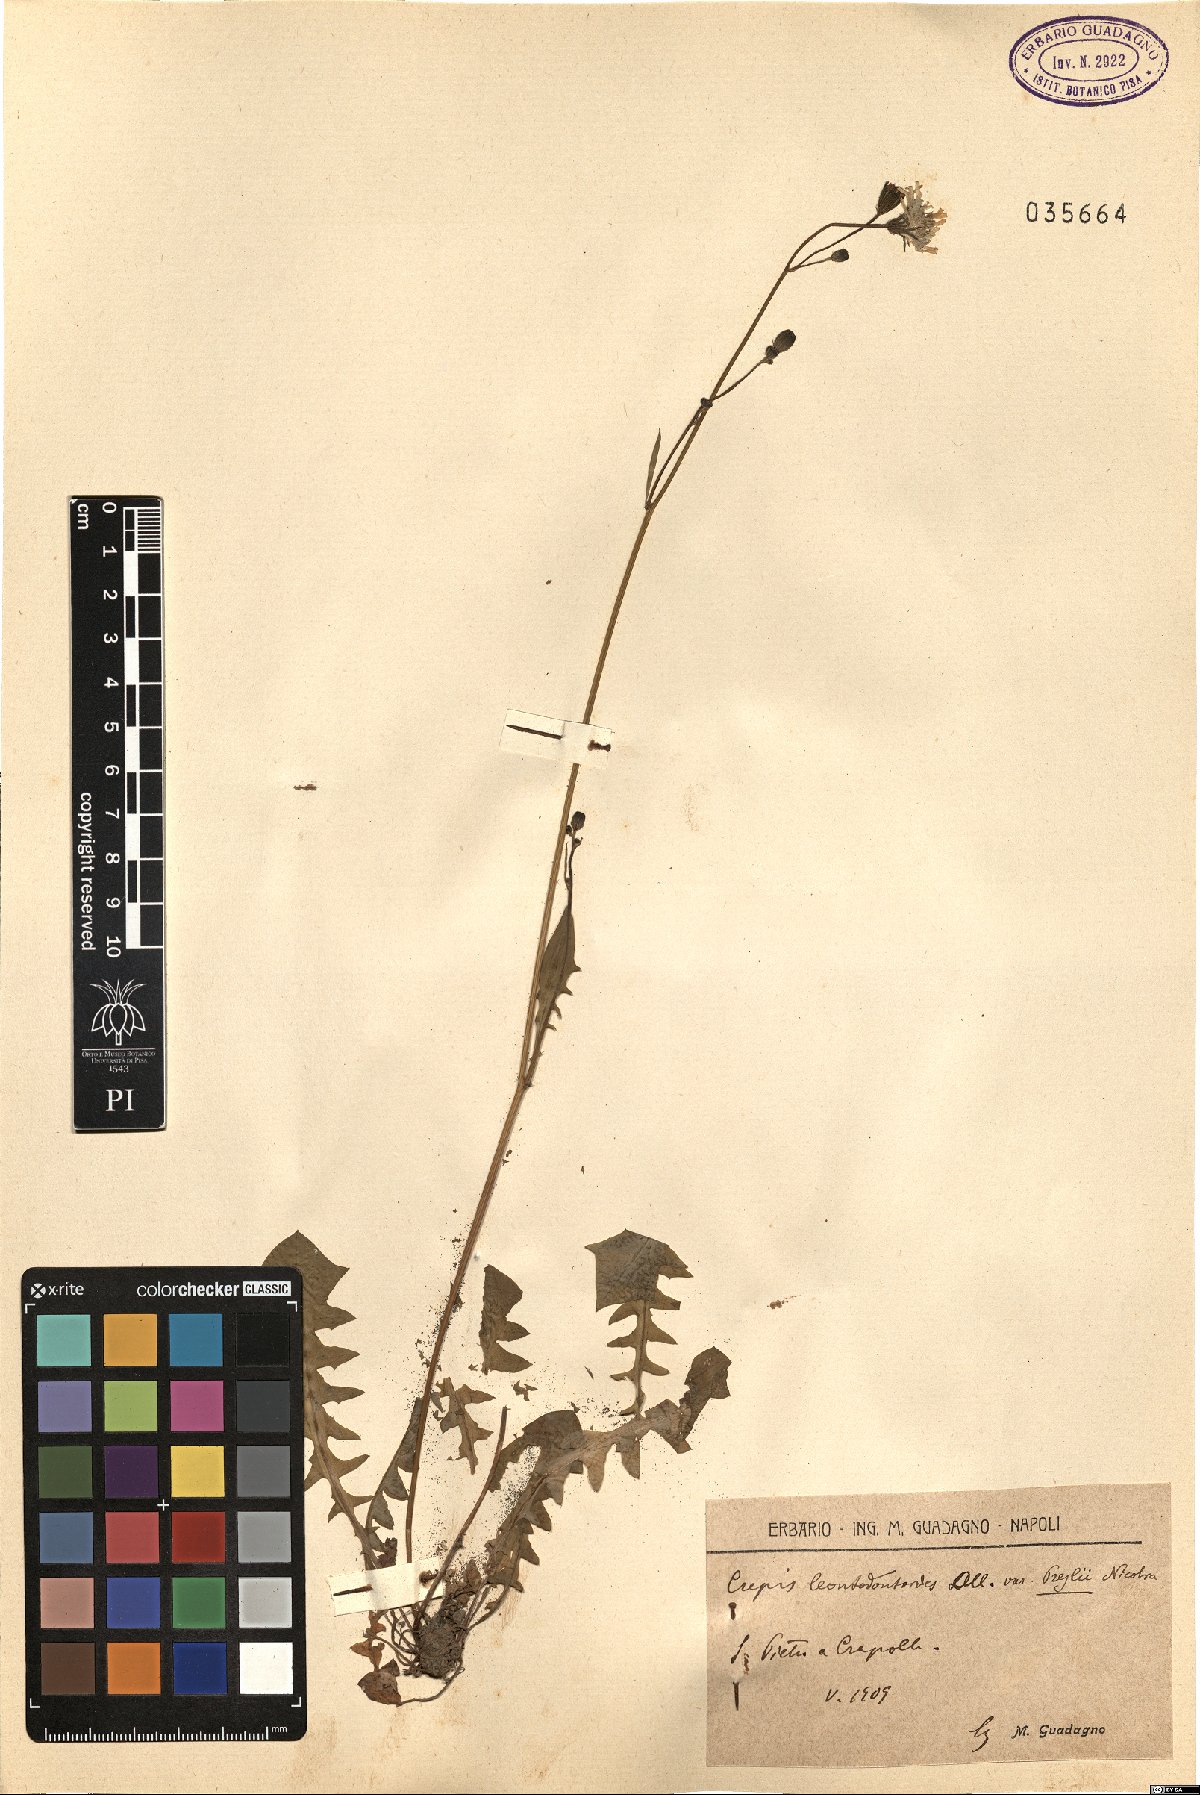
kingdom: Plantae
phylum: Tracheophyta
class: Magnoliopsida
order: Asterales
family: Asteraceae
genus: Crepis
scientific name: Crepis leontodontoides
